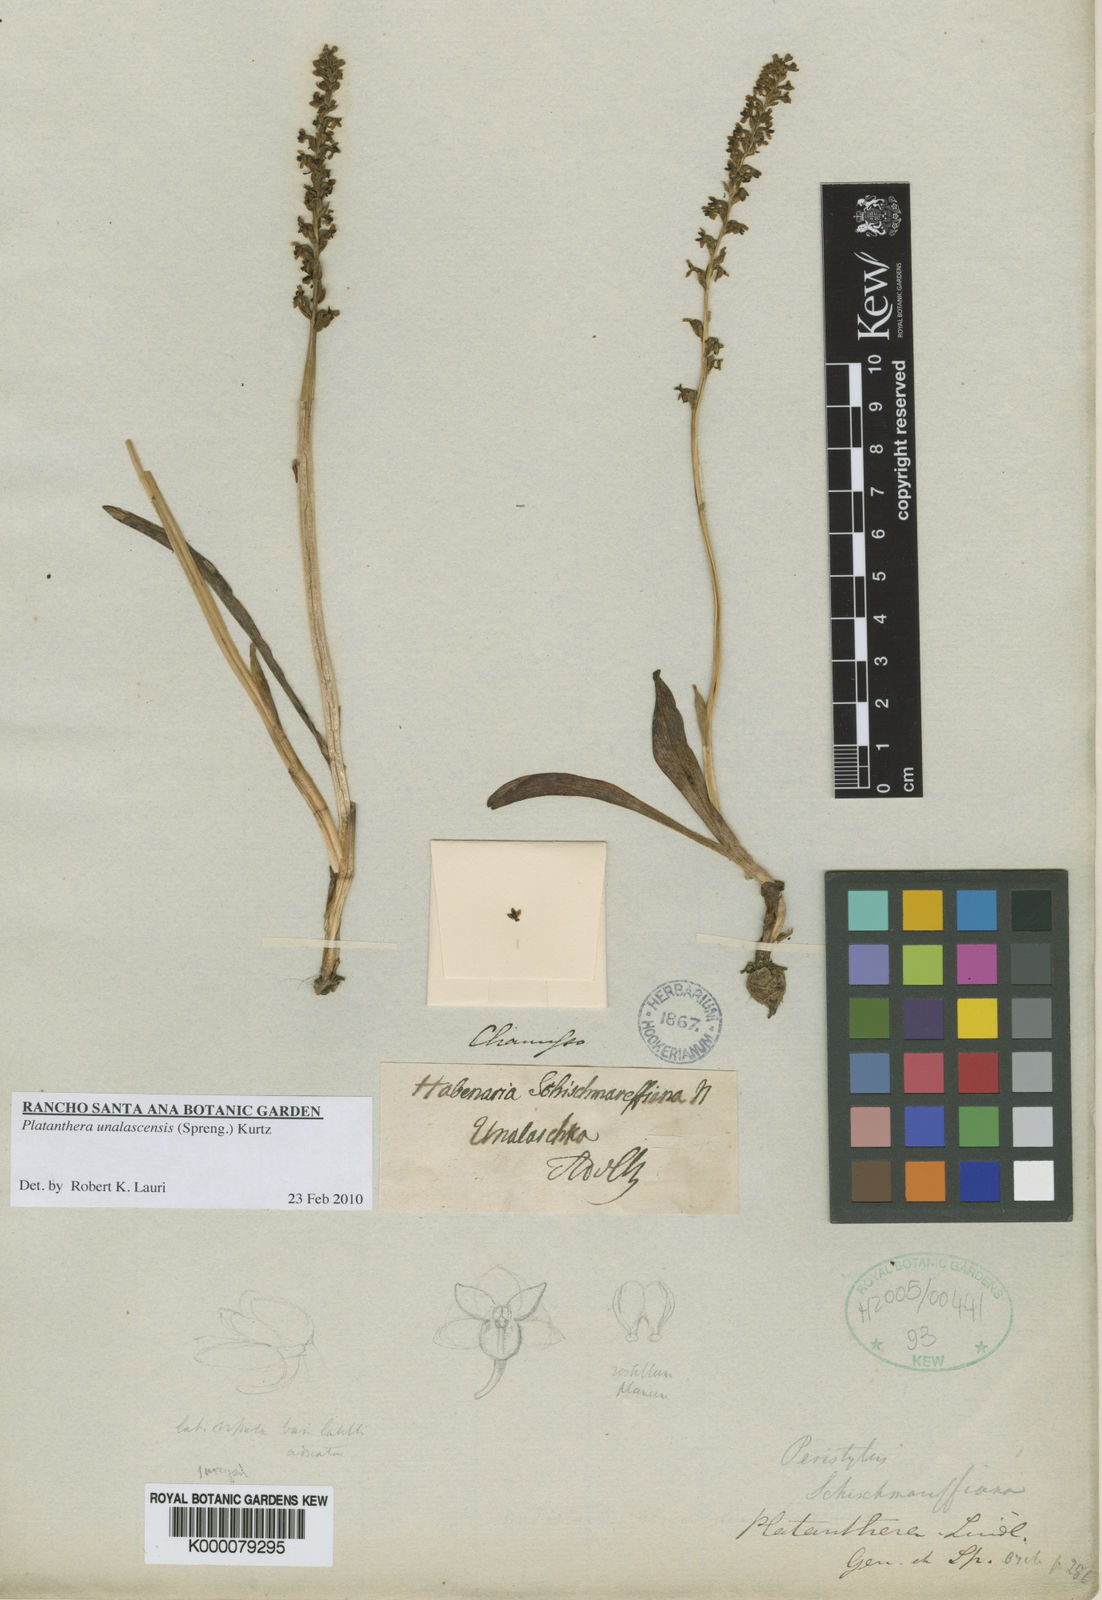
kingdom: Plantae
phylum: Tracheophyta
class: Liliopsida
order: Asparagales
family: Orchidaceae
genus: Platanthera
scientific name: Platanthera unalascensis
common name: Alaska bog orchid
